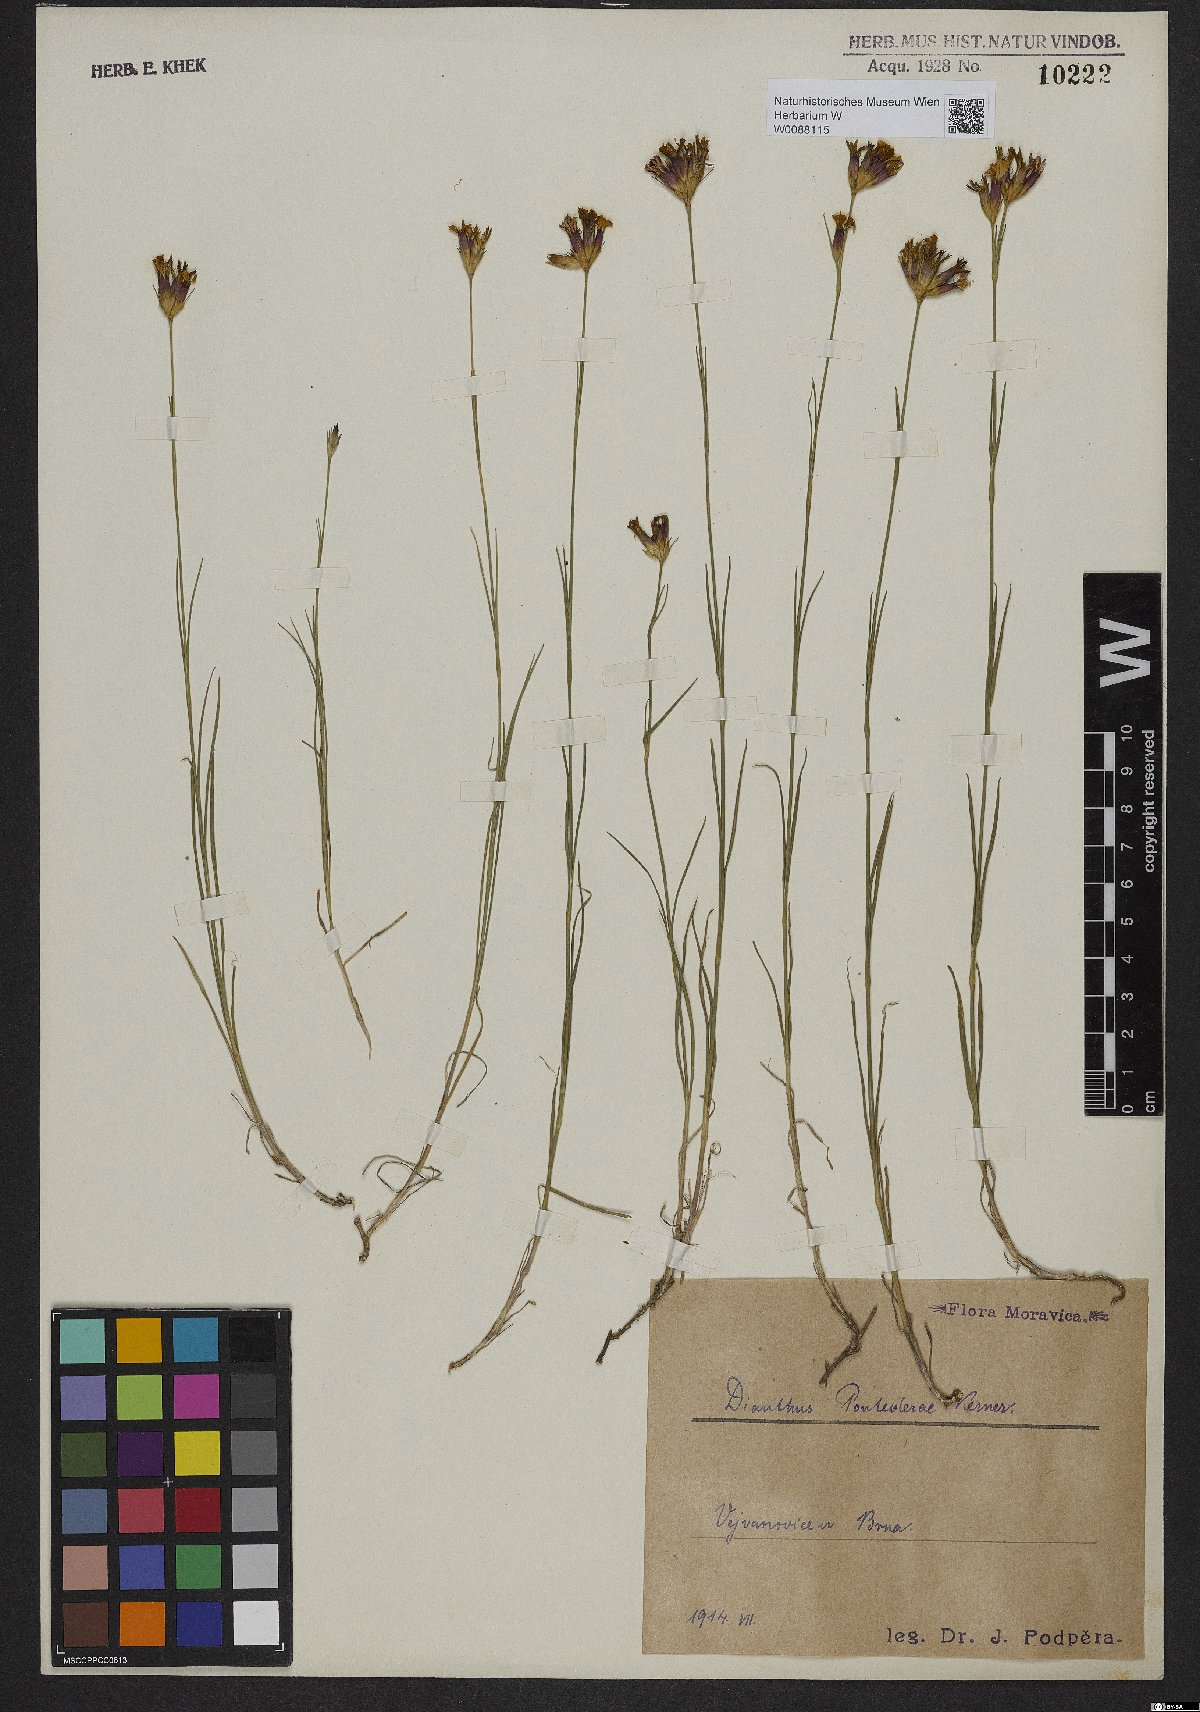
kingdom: Plantae
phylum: Tracheophyta
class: Magnoliopsida
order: Caryophyllales
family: Caryophyllaceae
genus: Dianthus
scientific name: Dianthus pontederae
